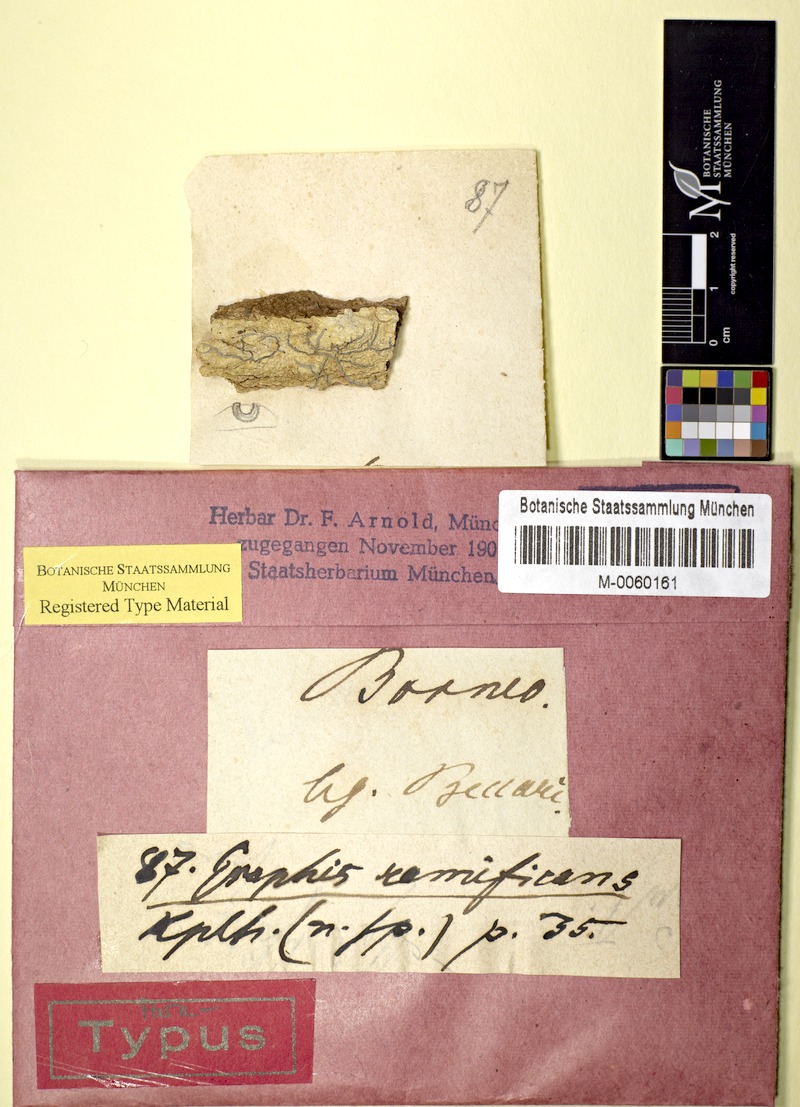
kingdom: Fungi
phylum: Ascomycota
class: Lecanoromycetes
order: Ostropales
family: Graphidaceae
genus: Sarcographa
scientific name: Sarcographa ramificans
